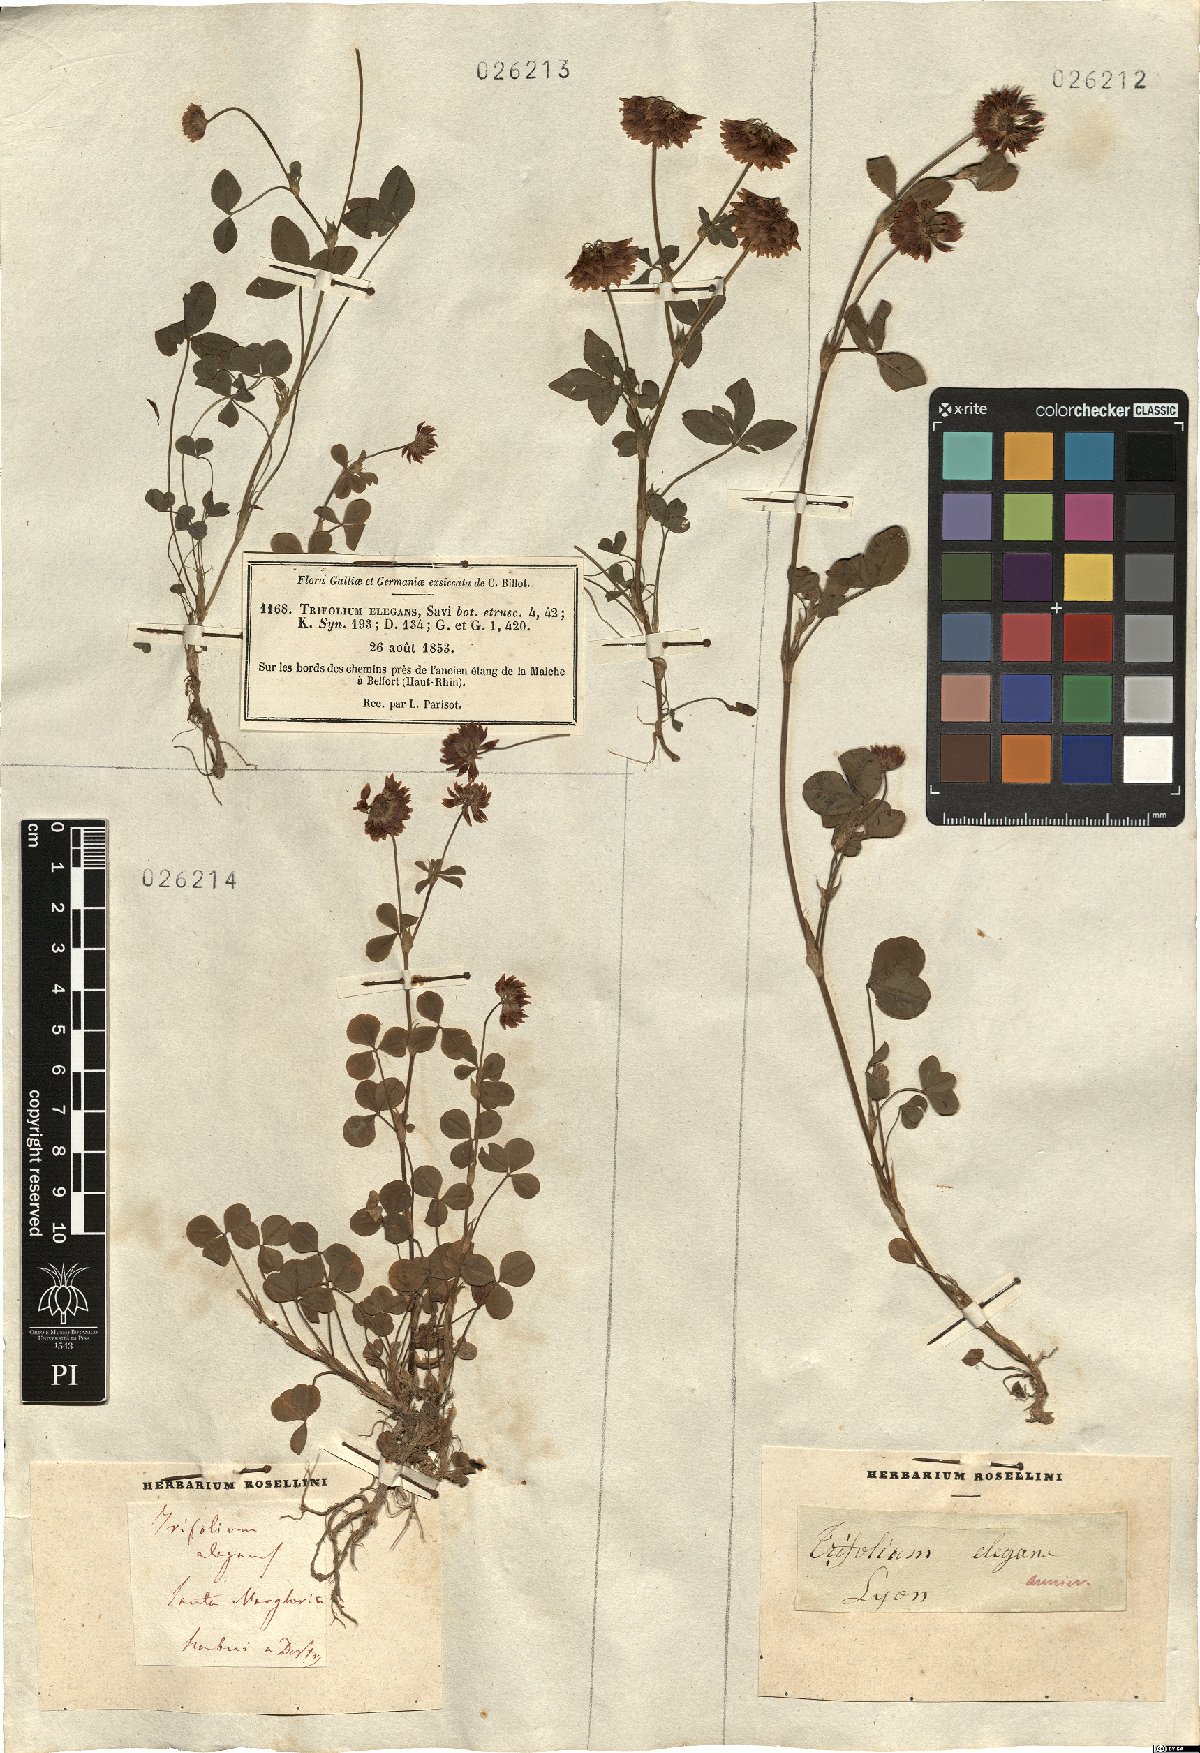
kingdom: Plantae
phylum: Tracheophyta
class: Magnoliopsida
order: Fabales
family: Fabaceae
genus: Trifolium
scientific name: Trifolium hybridum
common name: Alsike clover
